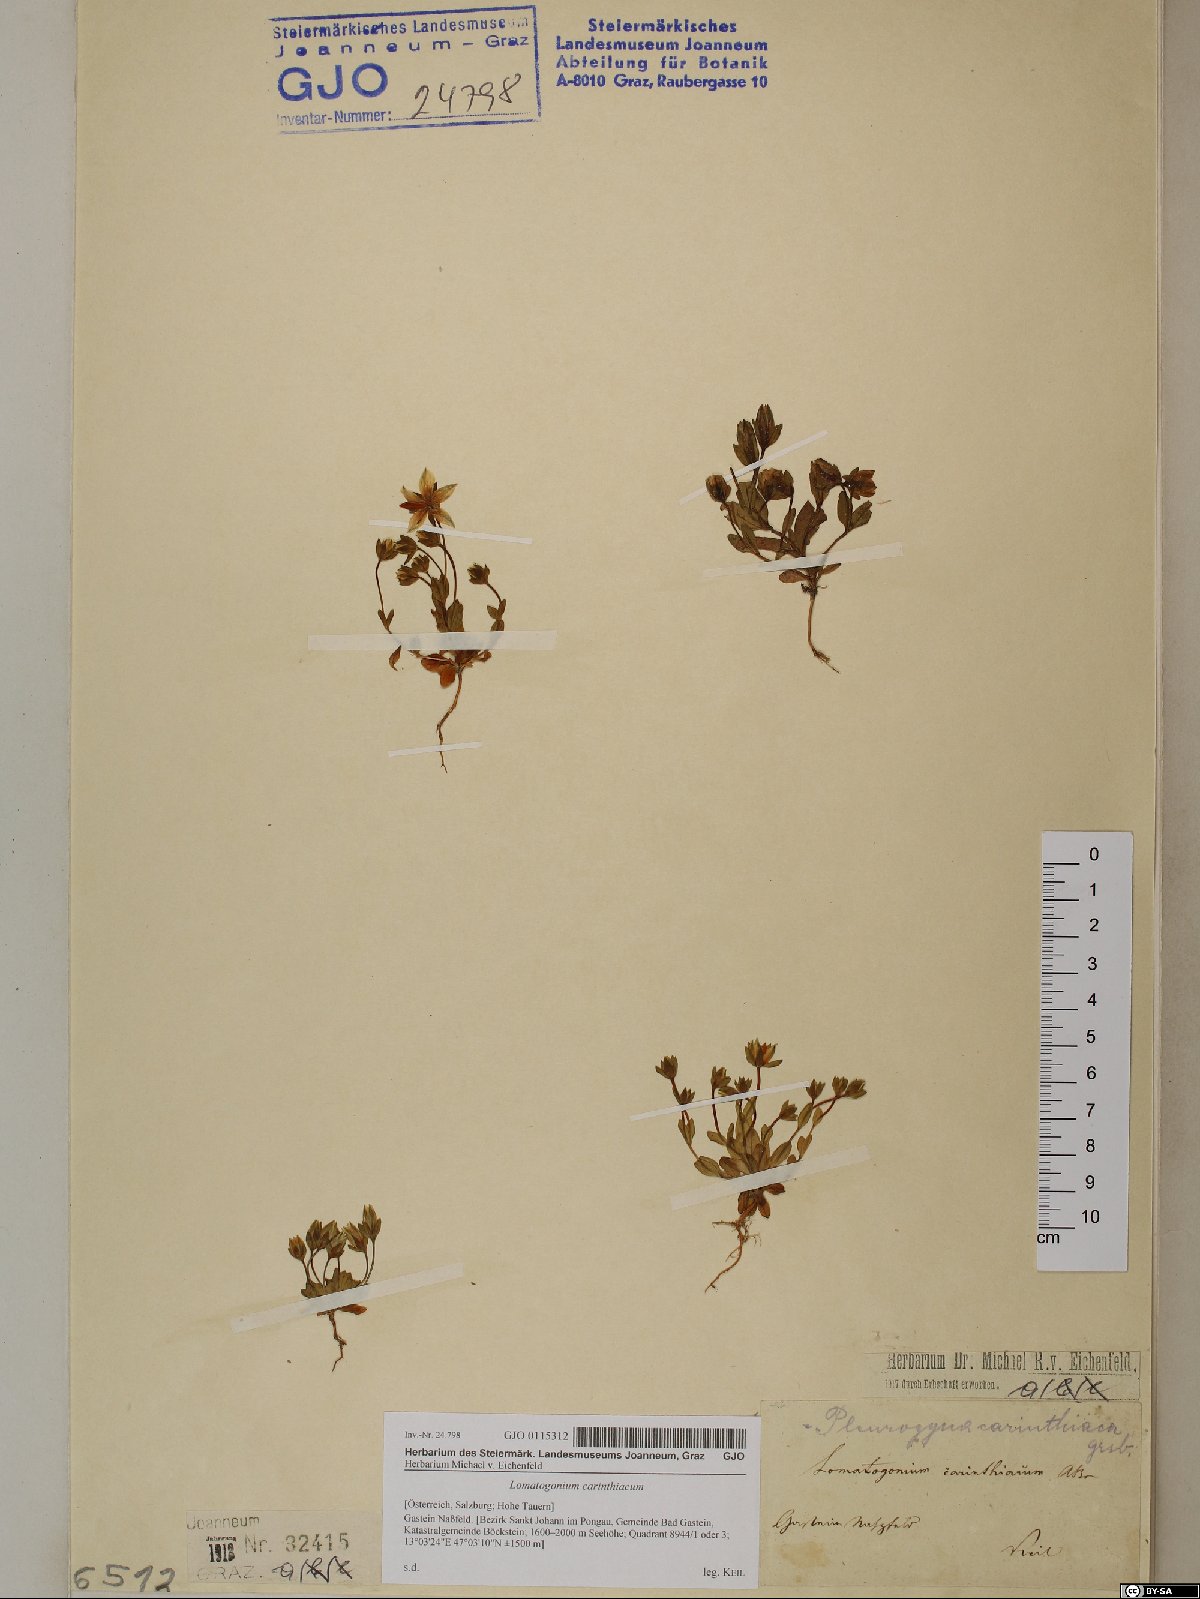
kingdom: Plantae
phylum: Tracheophyta
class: Magnoliopsida
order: Gentianales
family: Gentianaceae
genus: Lomatogonium
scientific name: Lomatogonium carinthiacum
